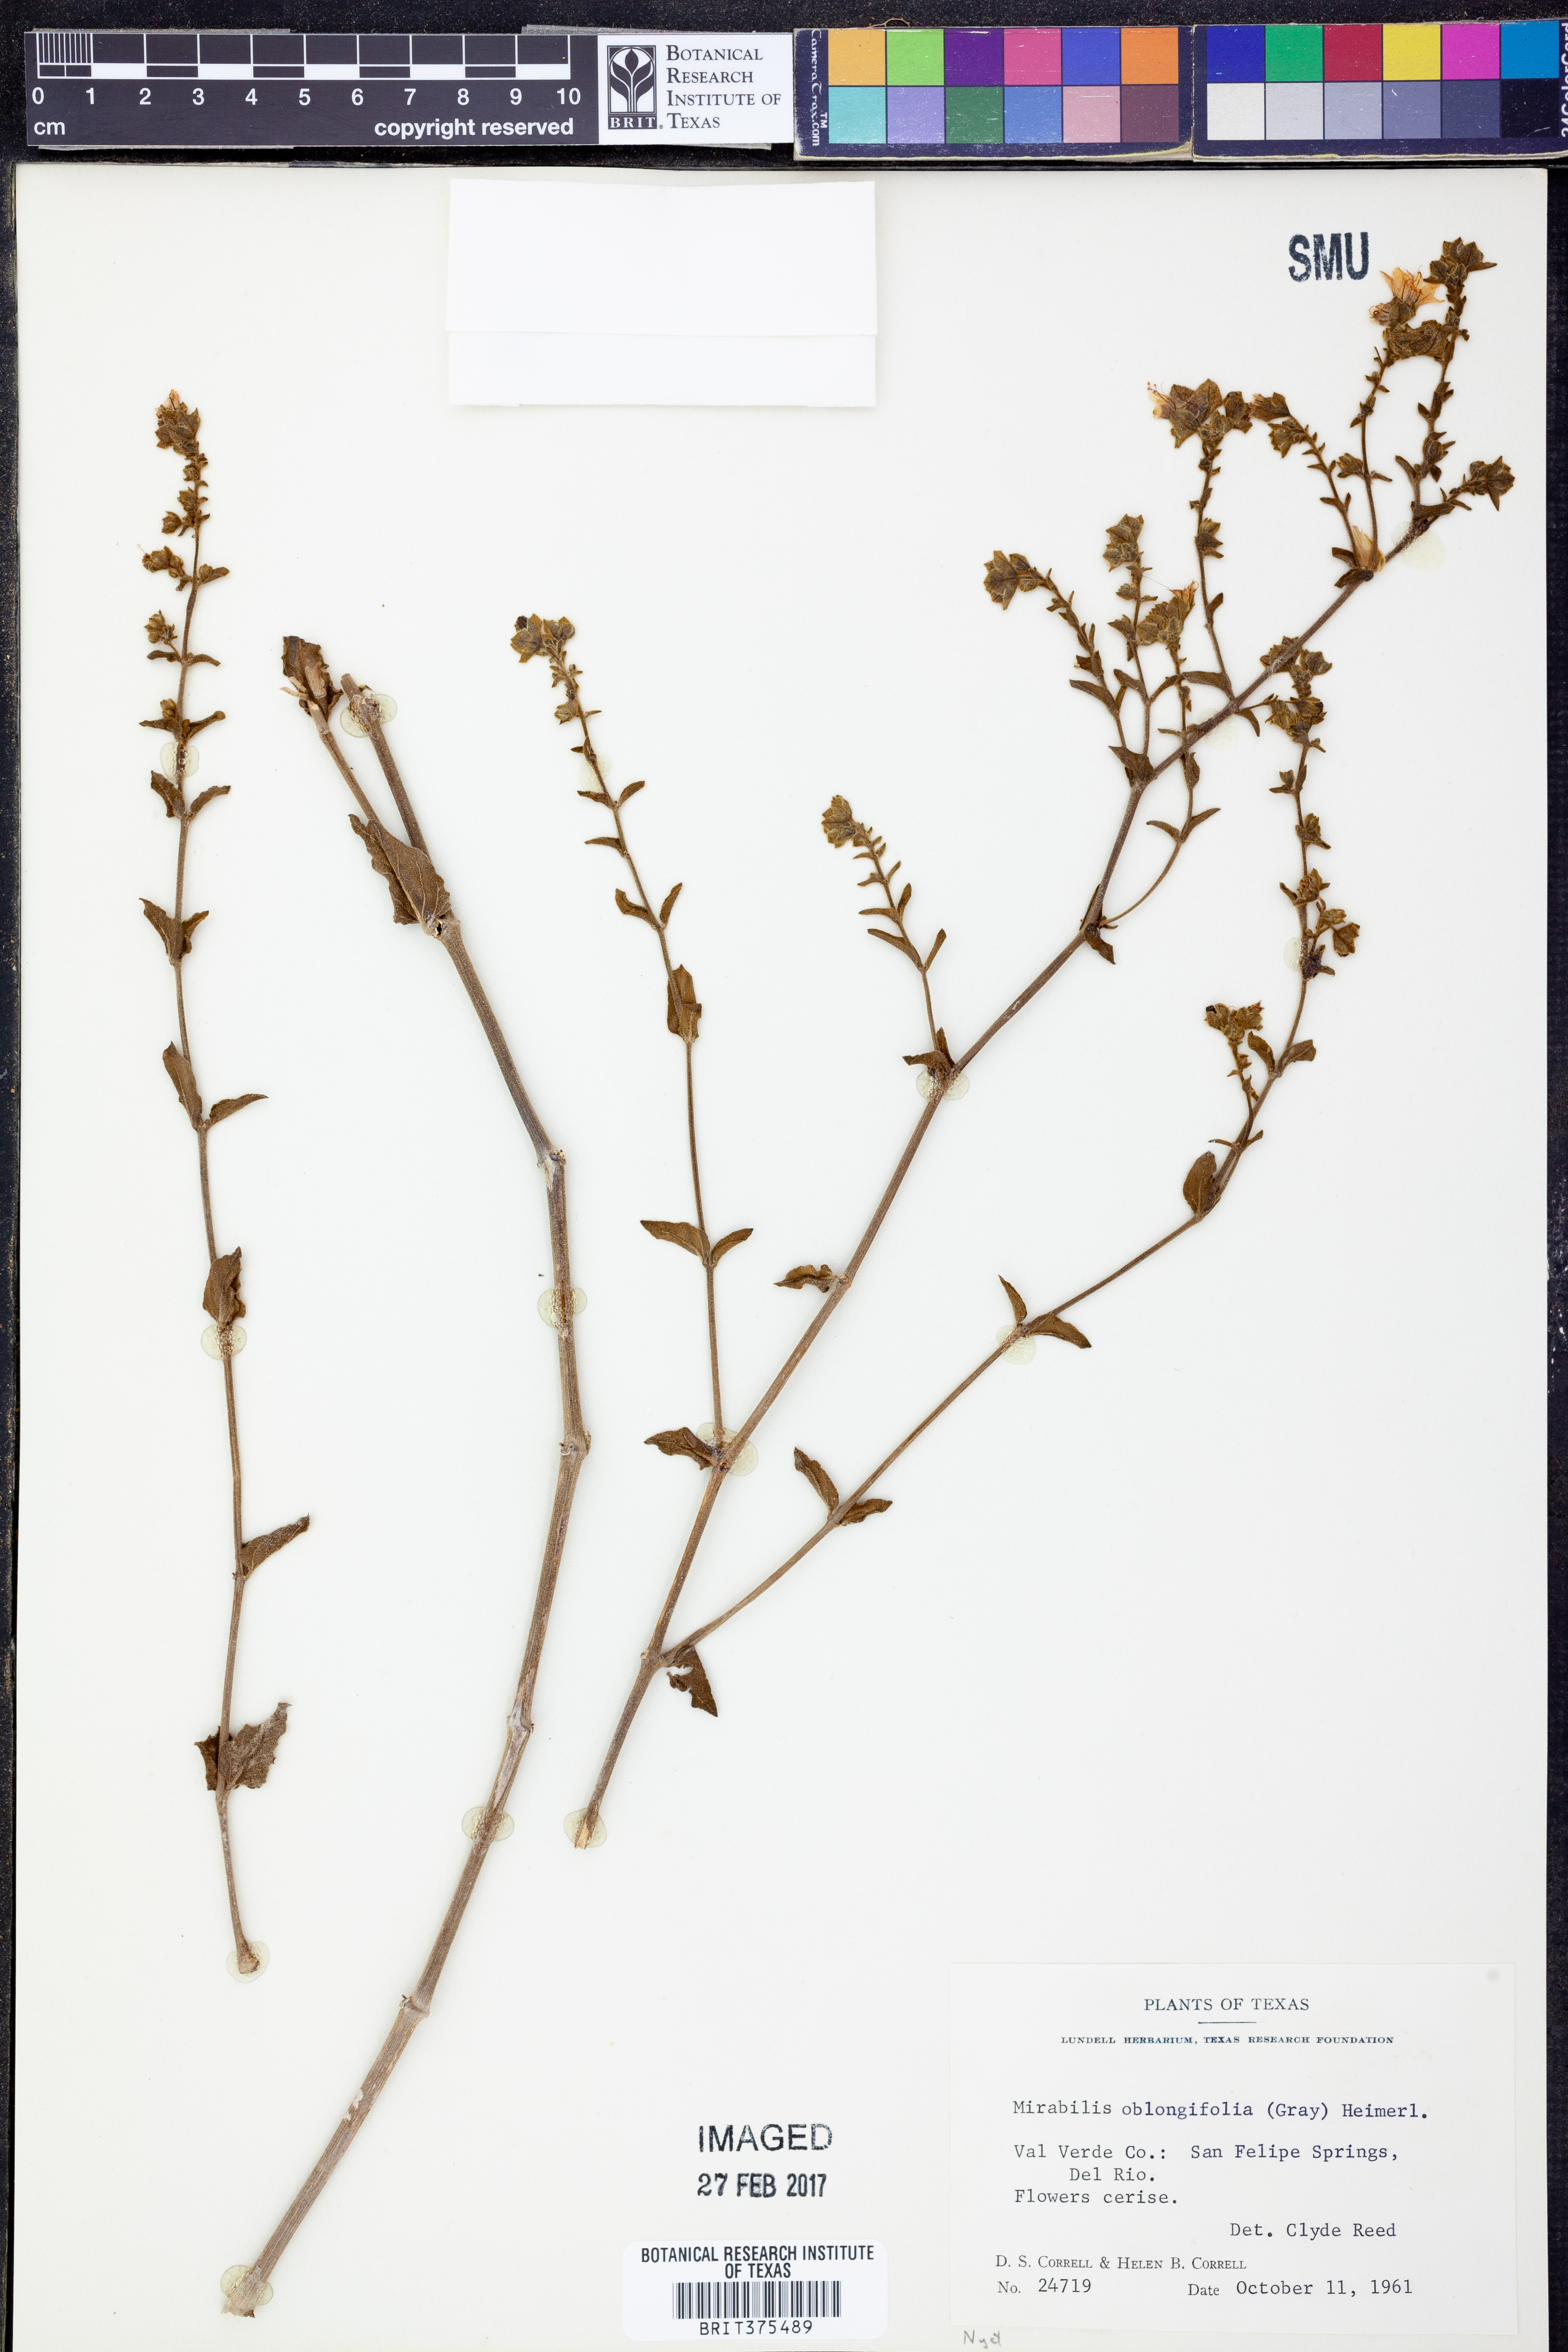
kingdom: Plantae
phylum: Tracheophyta
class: Magnoliopsida
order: Caryophyllales
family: Nyctaginaceae
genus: Mirabilis
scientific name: Mirabilis albida
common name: Hairy four-o'clock
